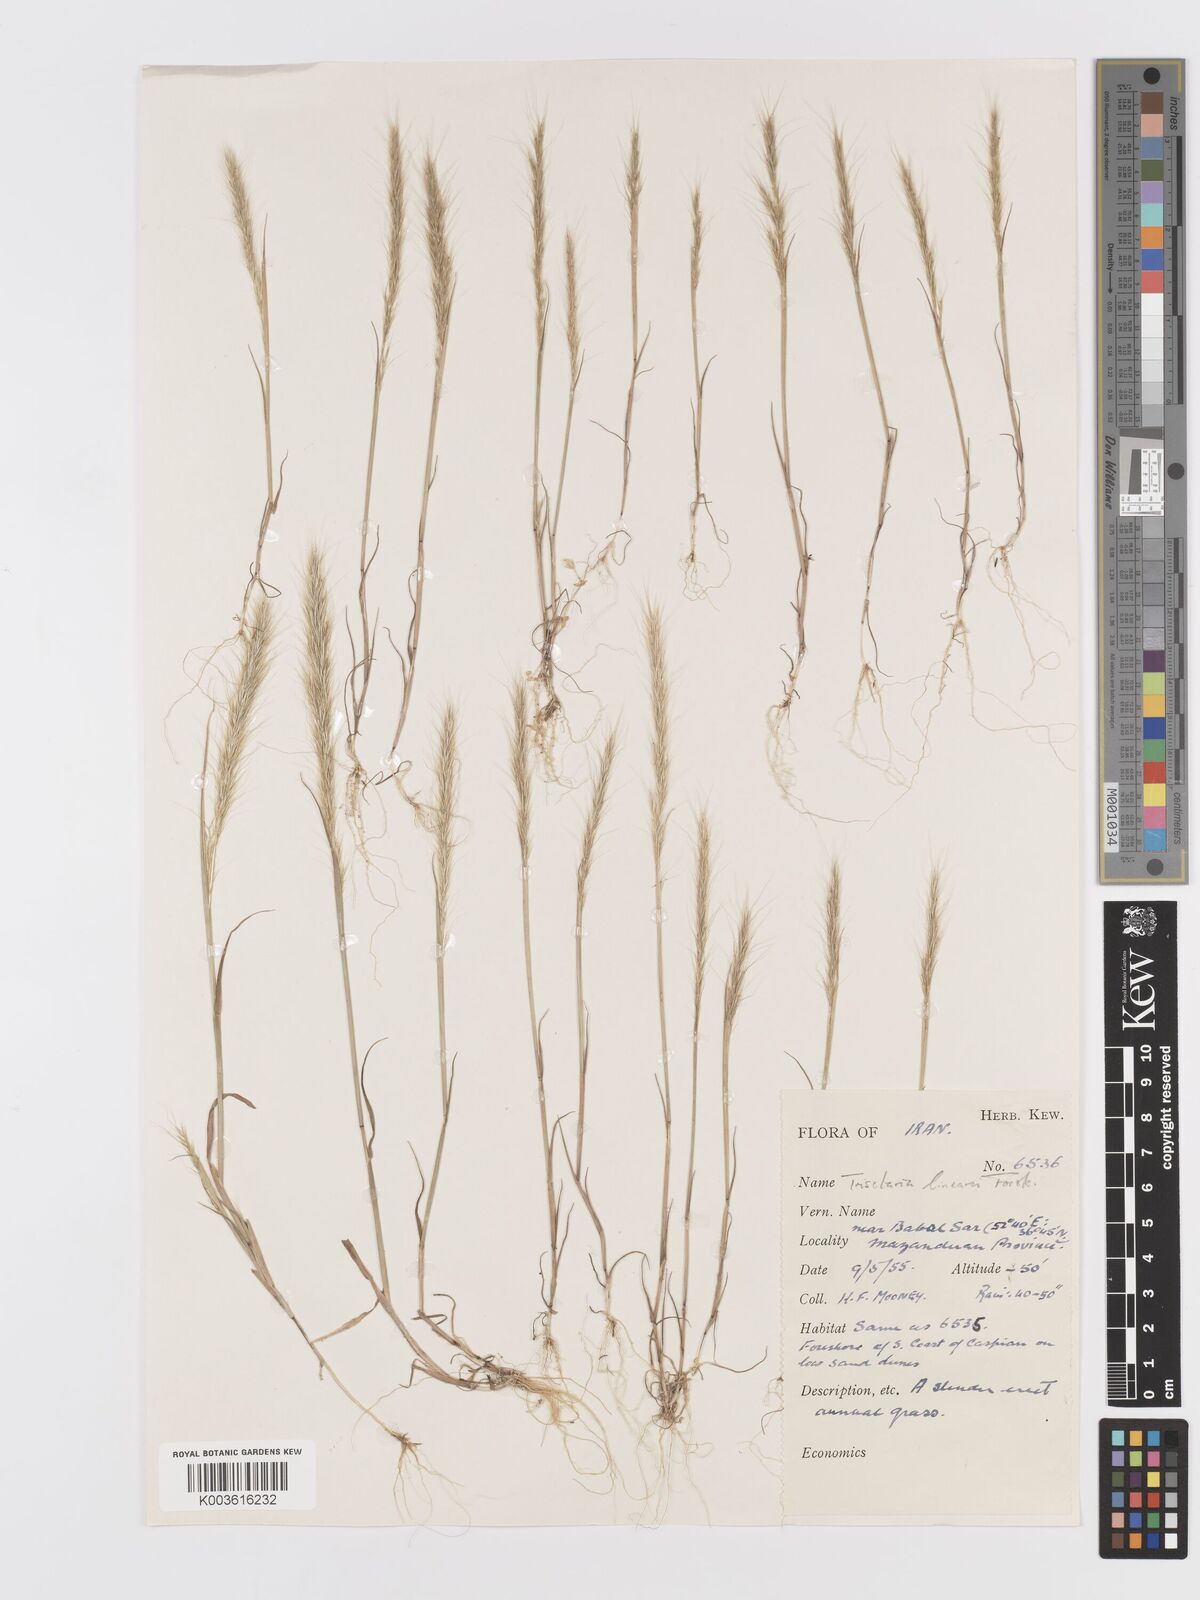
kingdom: Plantae
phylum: Tracheophyta
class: Liliopsida
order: Poales
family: Poaceae
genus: Trisetaria
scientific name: Trisetaria linearis
